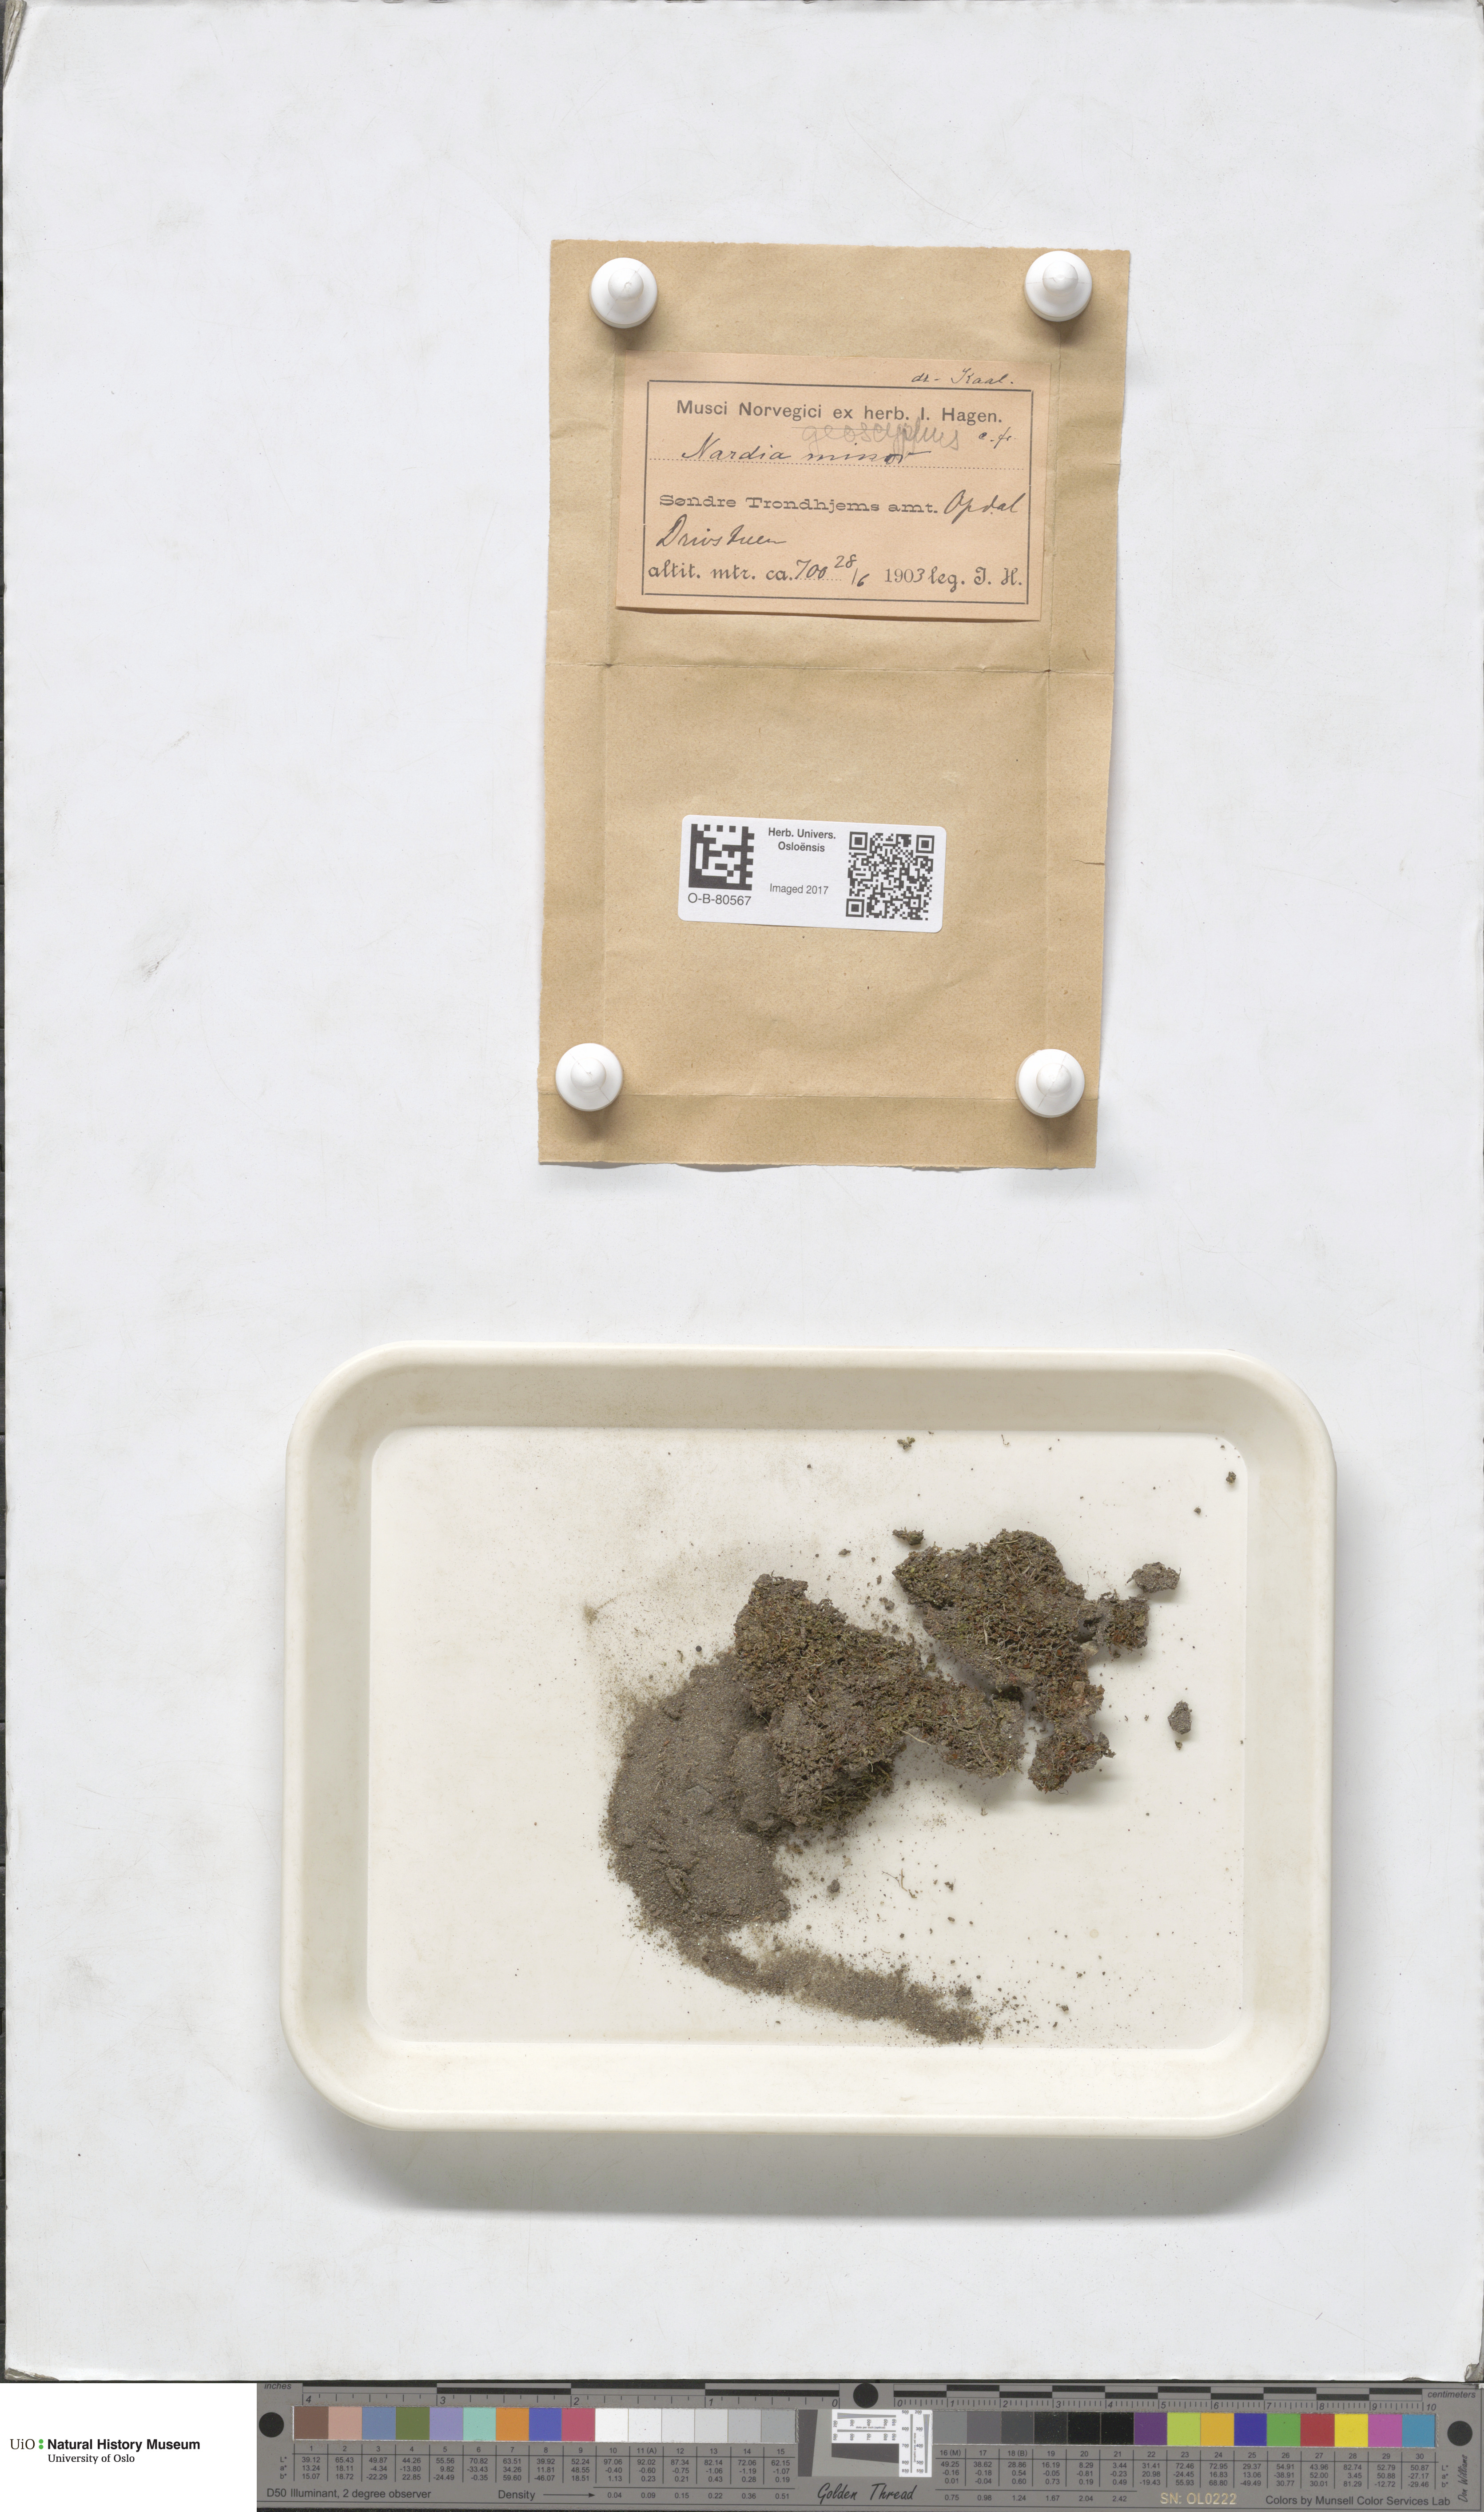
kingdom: Plantae
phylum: Marchantiophyta
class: Jungermanniopsida
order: Jungermanniales
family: Gymnomitriaceae
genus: Nardia
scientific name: Nardia geoscyphus
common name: Earth-cup flapwort
